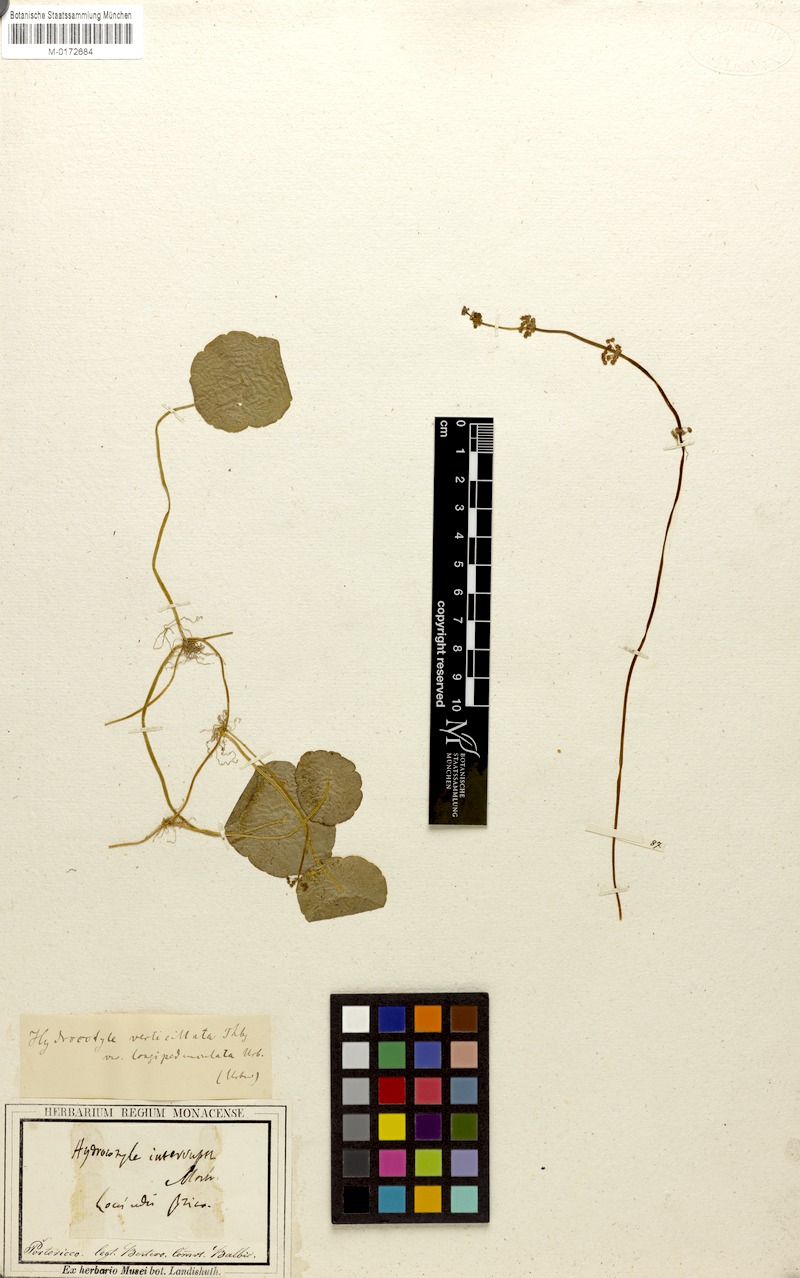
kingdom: Plantae
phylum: Tracheophyta
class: Magnoliopsida
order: Apiales
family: Araliaceae
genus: Hydrocotyle
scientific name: Hydrocotyle umbellata
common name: Water pennywort
